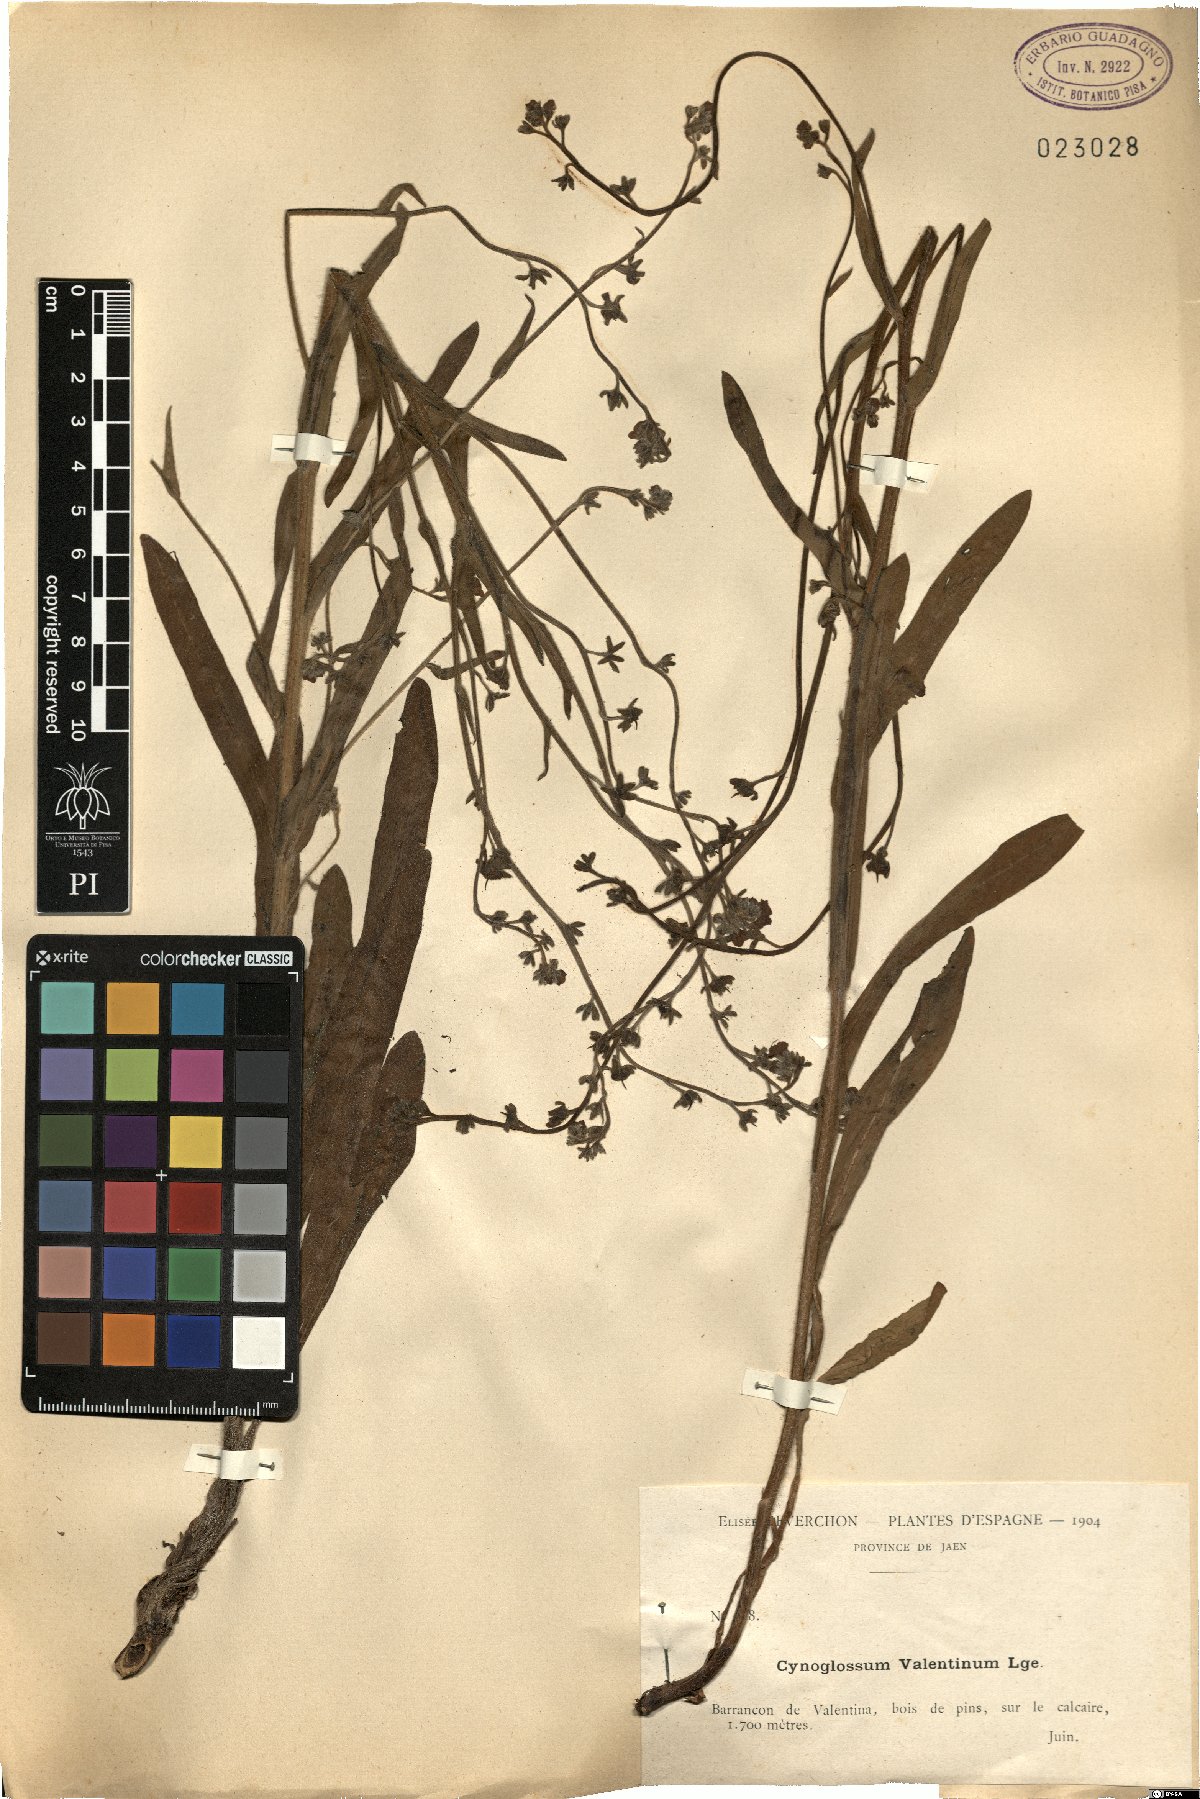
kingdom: Plantae
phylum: Tracheophyta
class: Magnoliopsida
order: Boraginales
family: Boraginaceae
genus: Cynoglossum
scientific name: Cynoglossum dioscoridis
